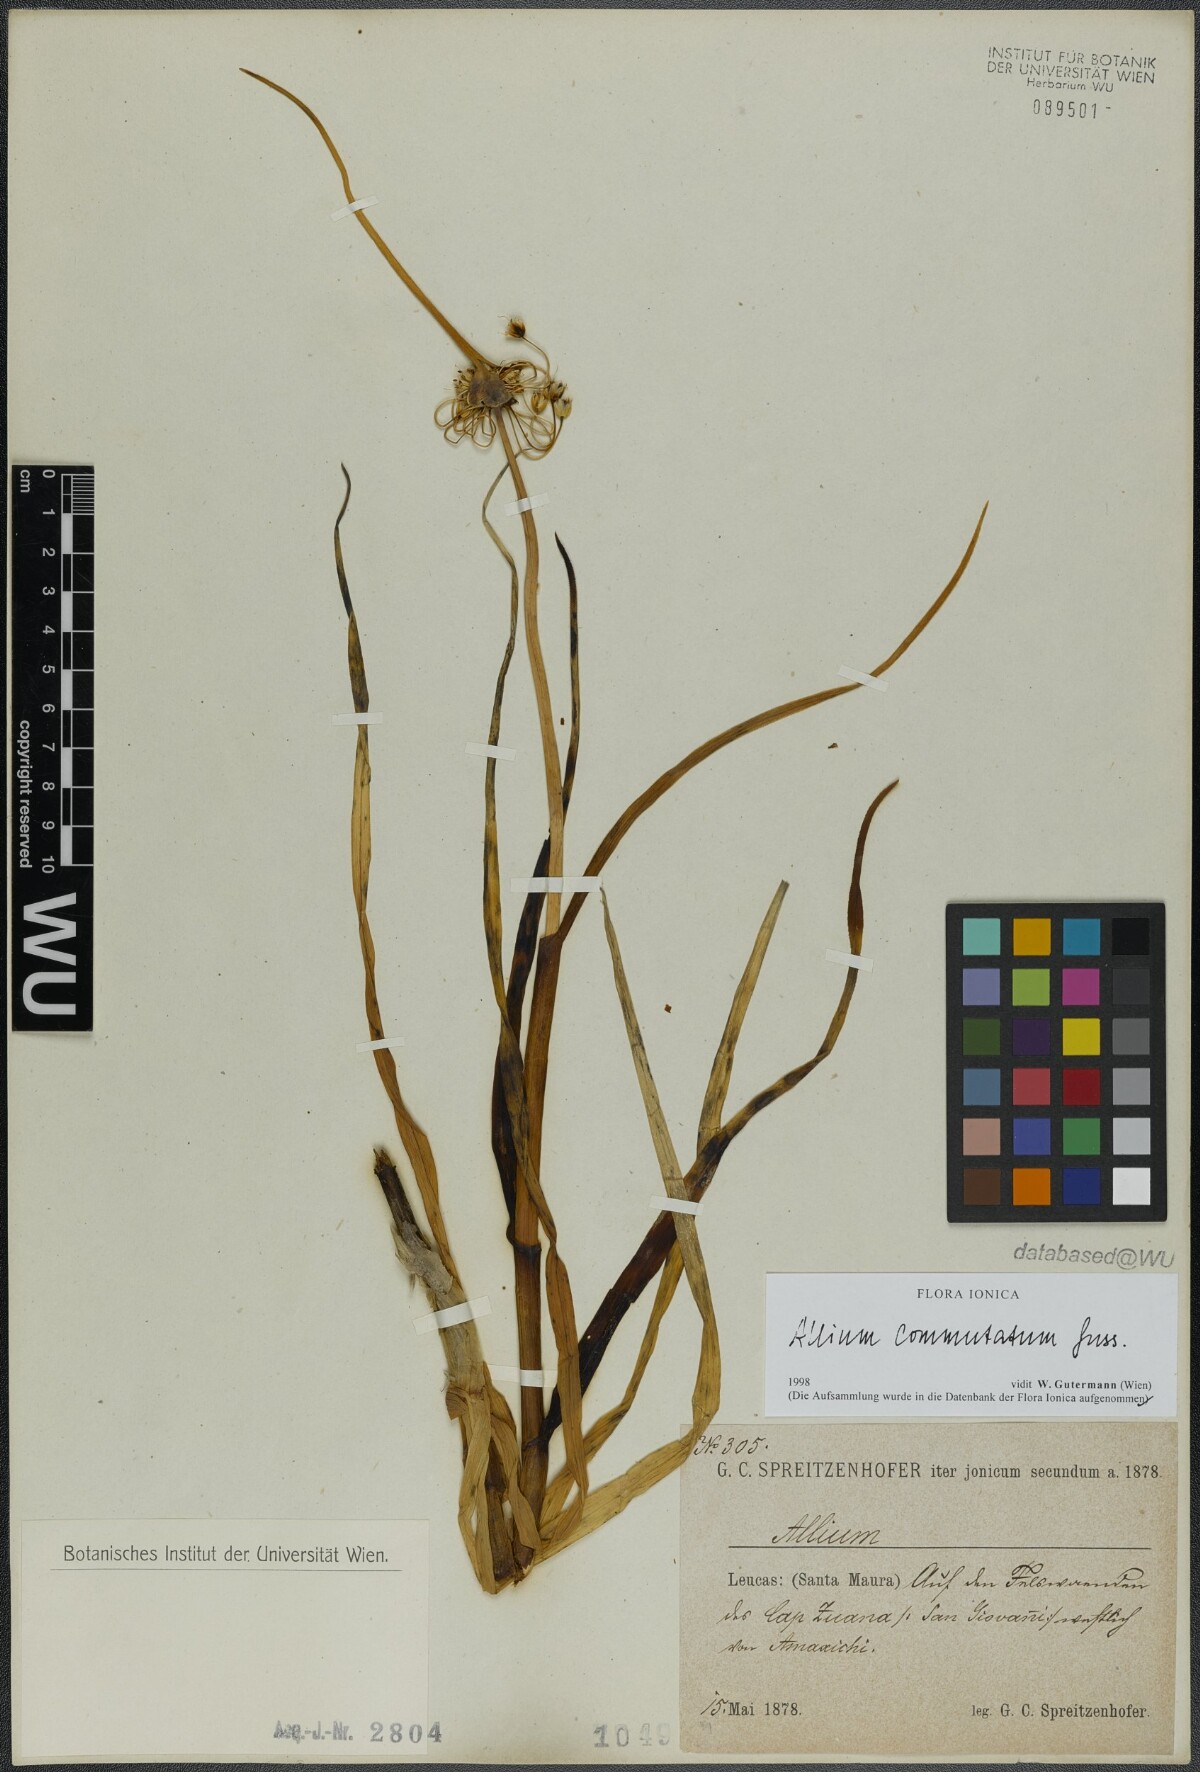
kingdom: Plantae
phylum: Tracheophyta
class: Liliopsida
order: Asparagales
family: Amaryllidaceae
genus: Allium
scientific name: Allium commutatum
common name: Sea garlic
